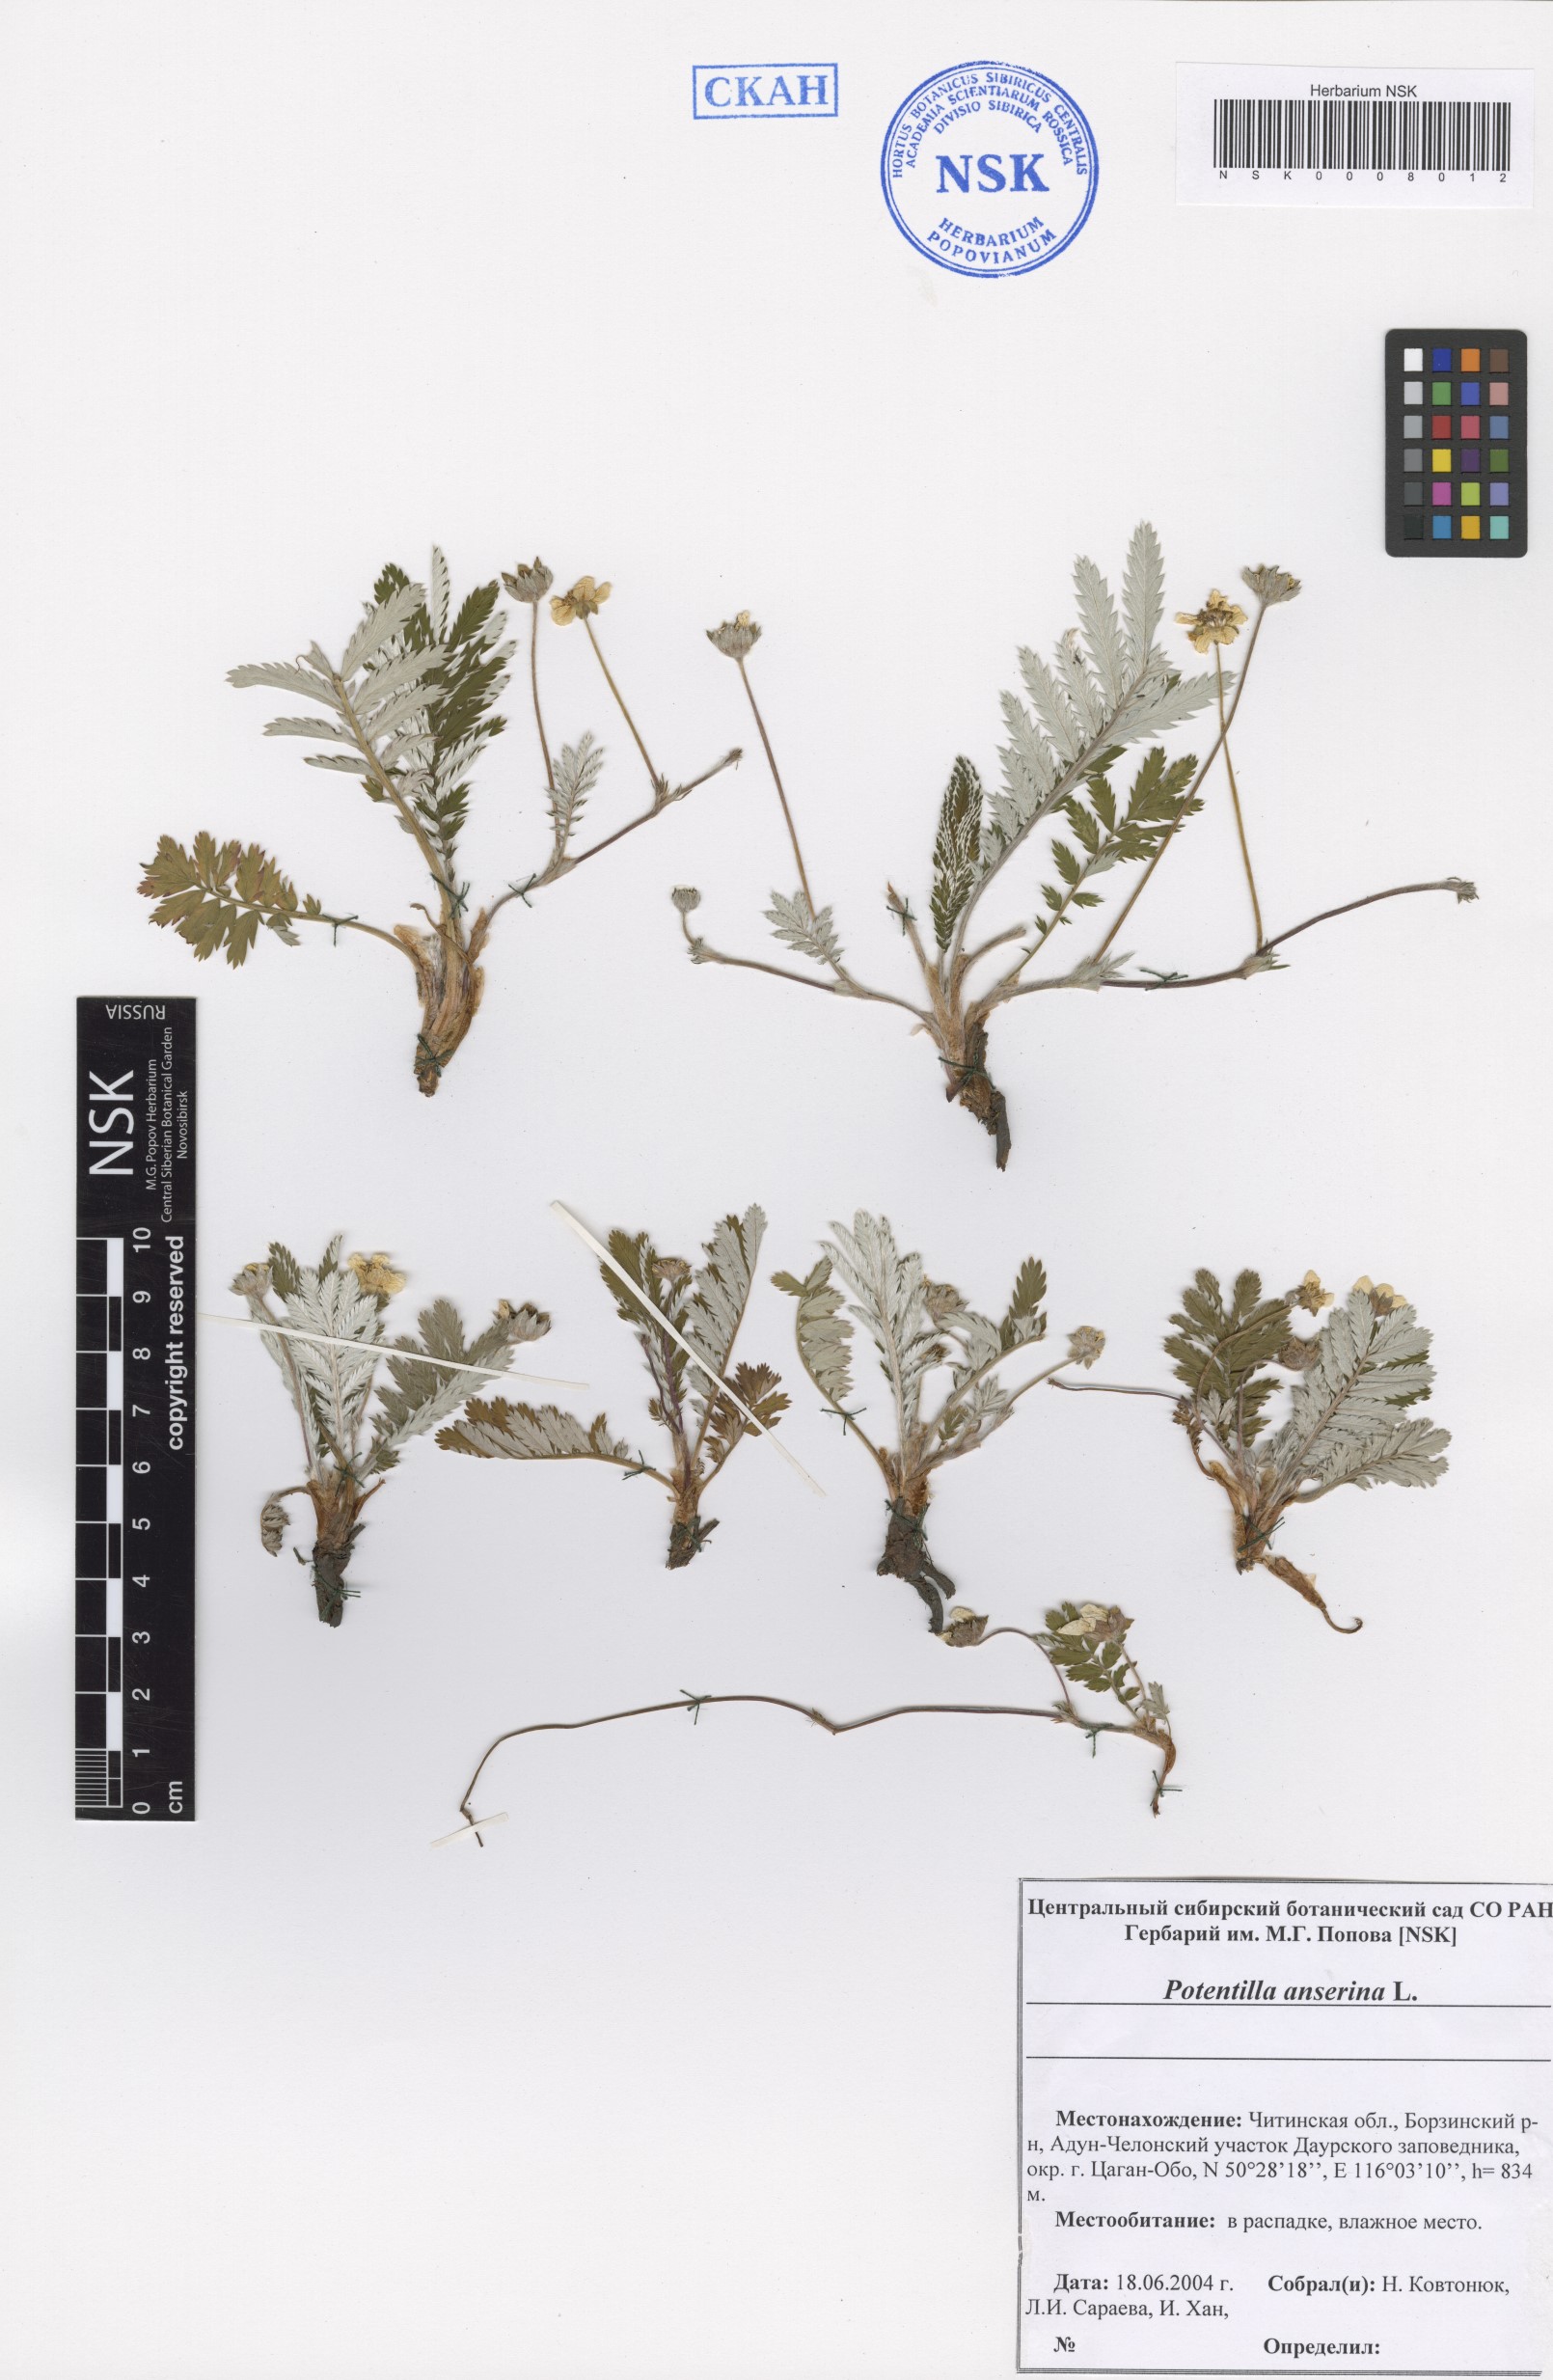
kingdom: Plantae
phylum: Tracheophyta
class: Magnoliopsida
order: Rosales
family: Rosaceae
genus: Argentina
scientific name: Argentina anserina
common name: Common silverweed
